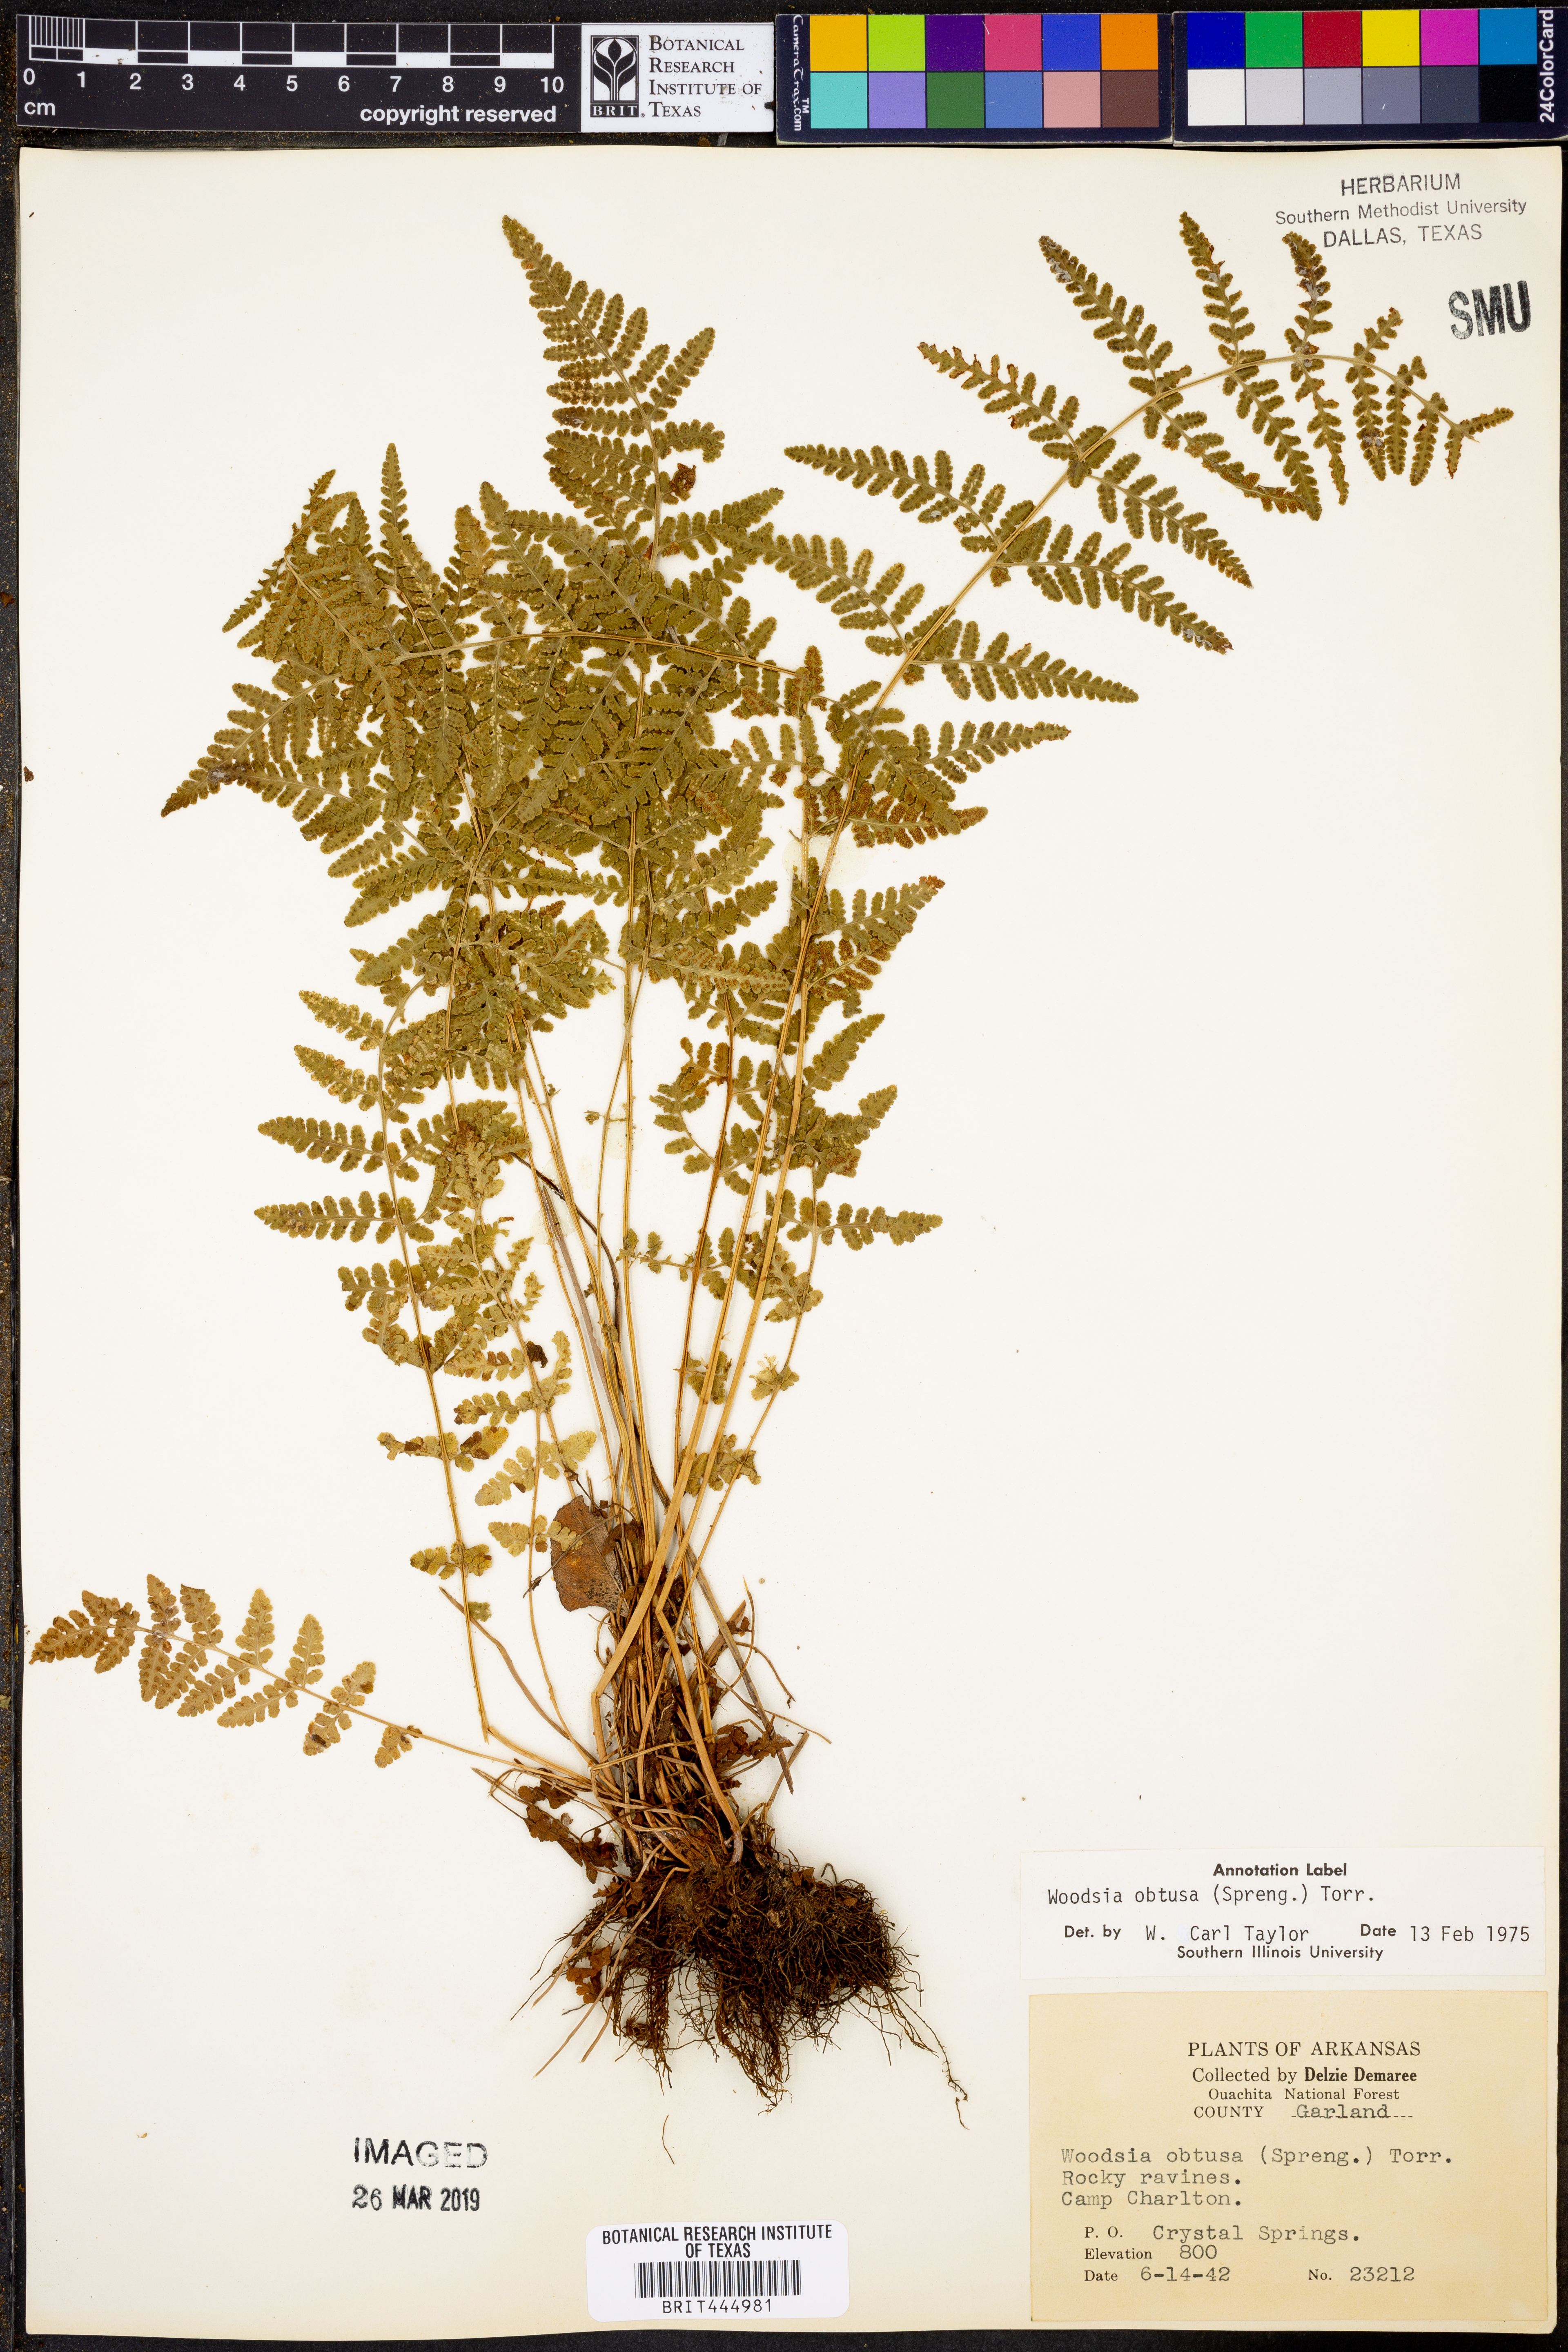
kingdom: Plantae
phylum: Tracheophyta
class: Polypodiopsida
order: Polypodiales
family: Woodsiaceae
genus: Physematium
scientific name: Physematium obtusum
